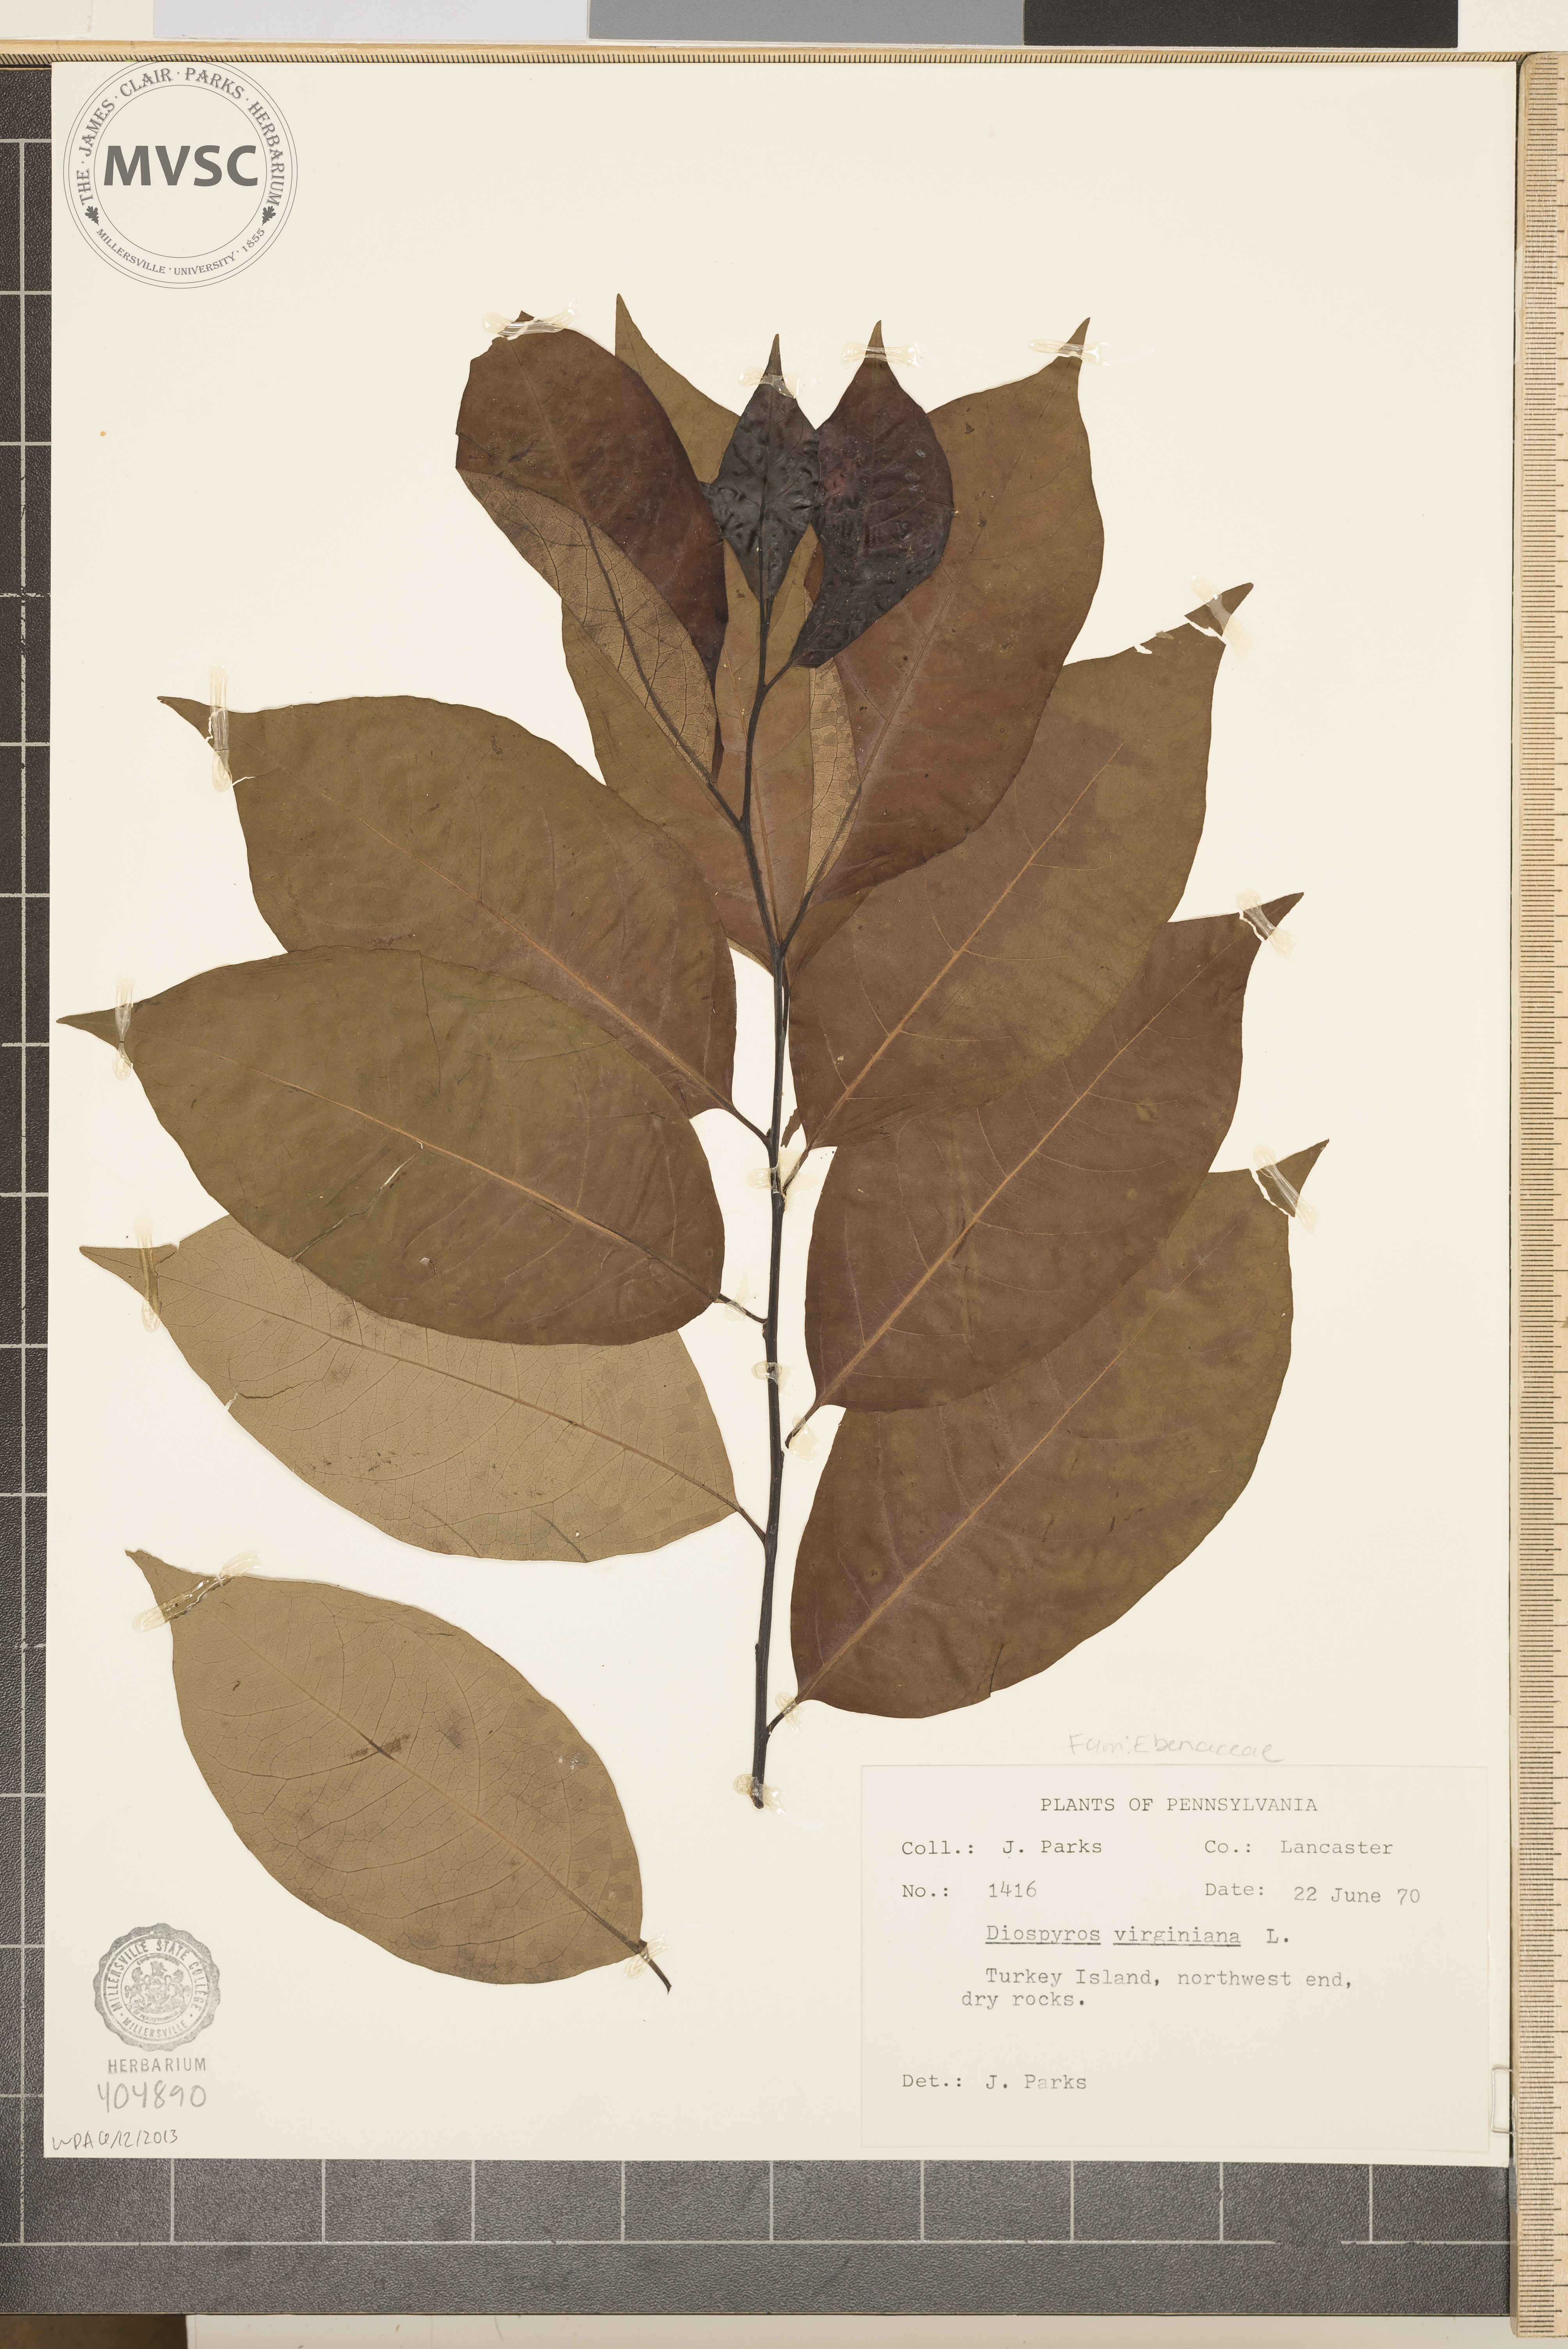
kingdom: Plantae
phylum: Tracheophyta
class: Magnoliopsida
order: Ericales
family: Ebenaceae
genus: Diospyros
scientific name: Diospyros virginiana
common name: Persimmon
